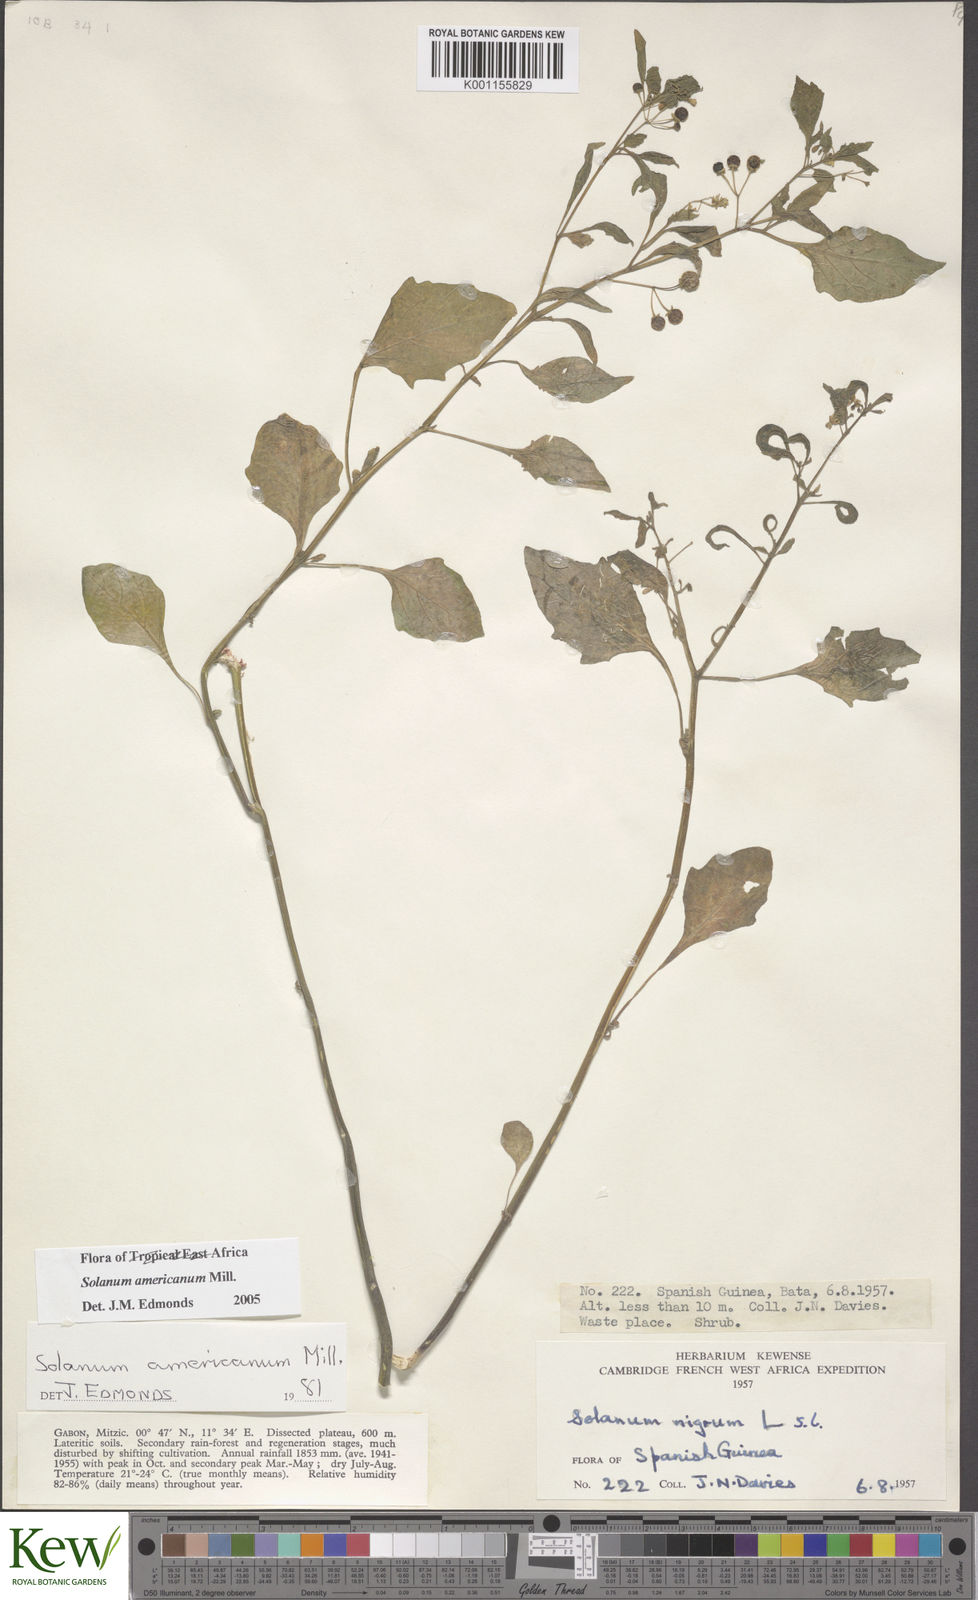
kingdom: Plantae
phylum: Tracheophyta
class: Magnoliopsida
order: Solanales
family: Solanaceae
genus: Solanum
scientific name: Solanum americanum
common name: American black nightshade
